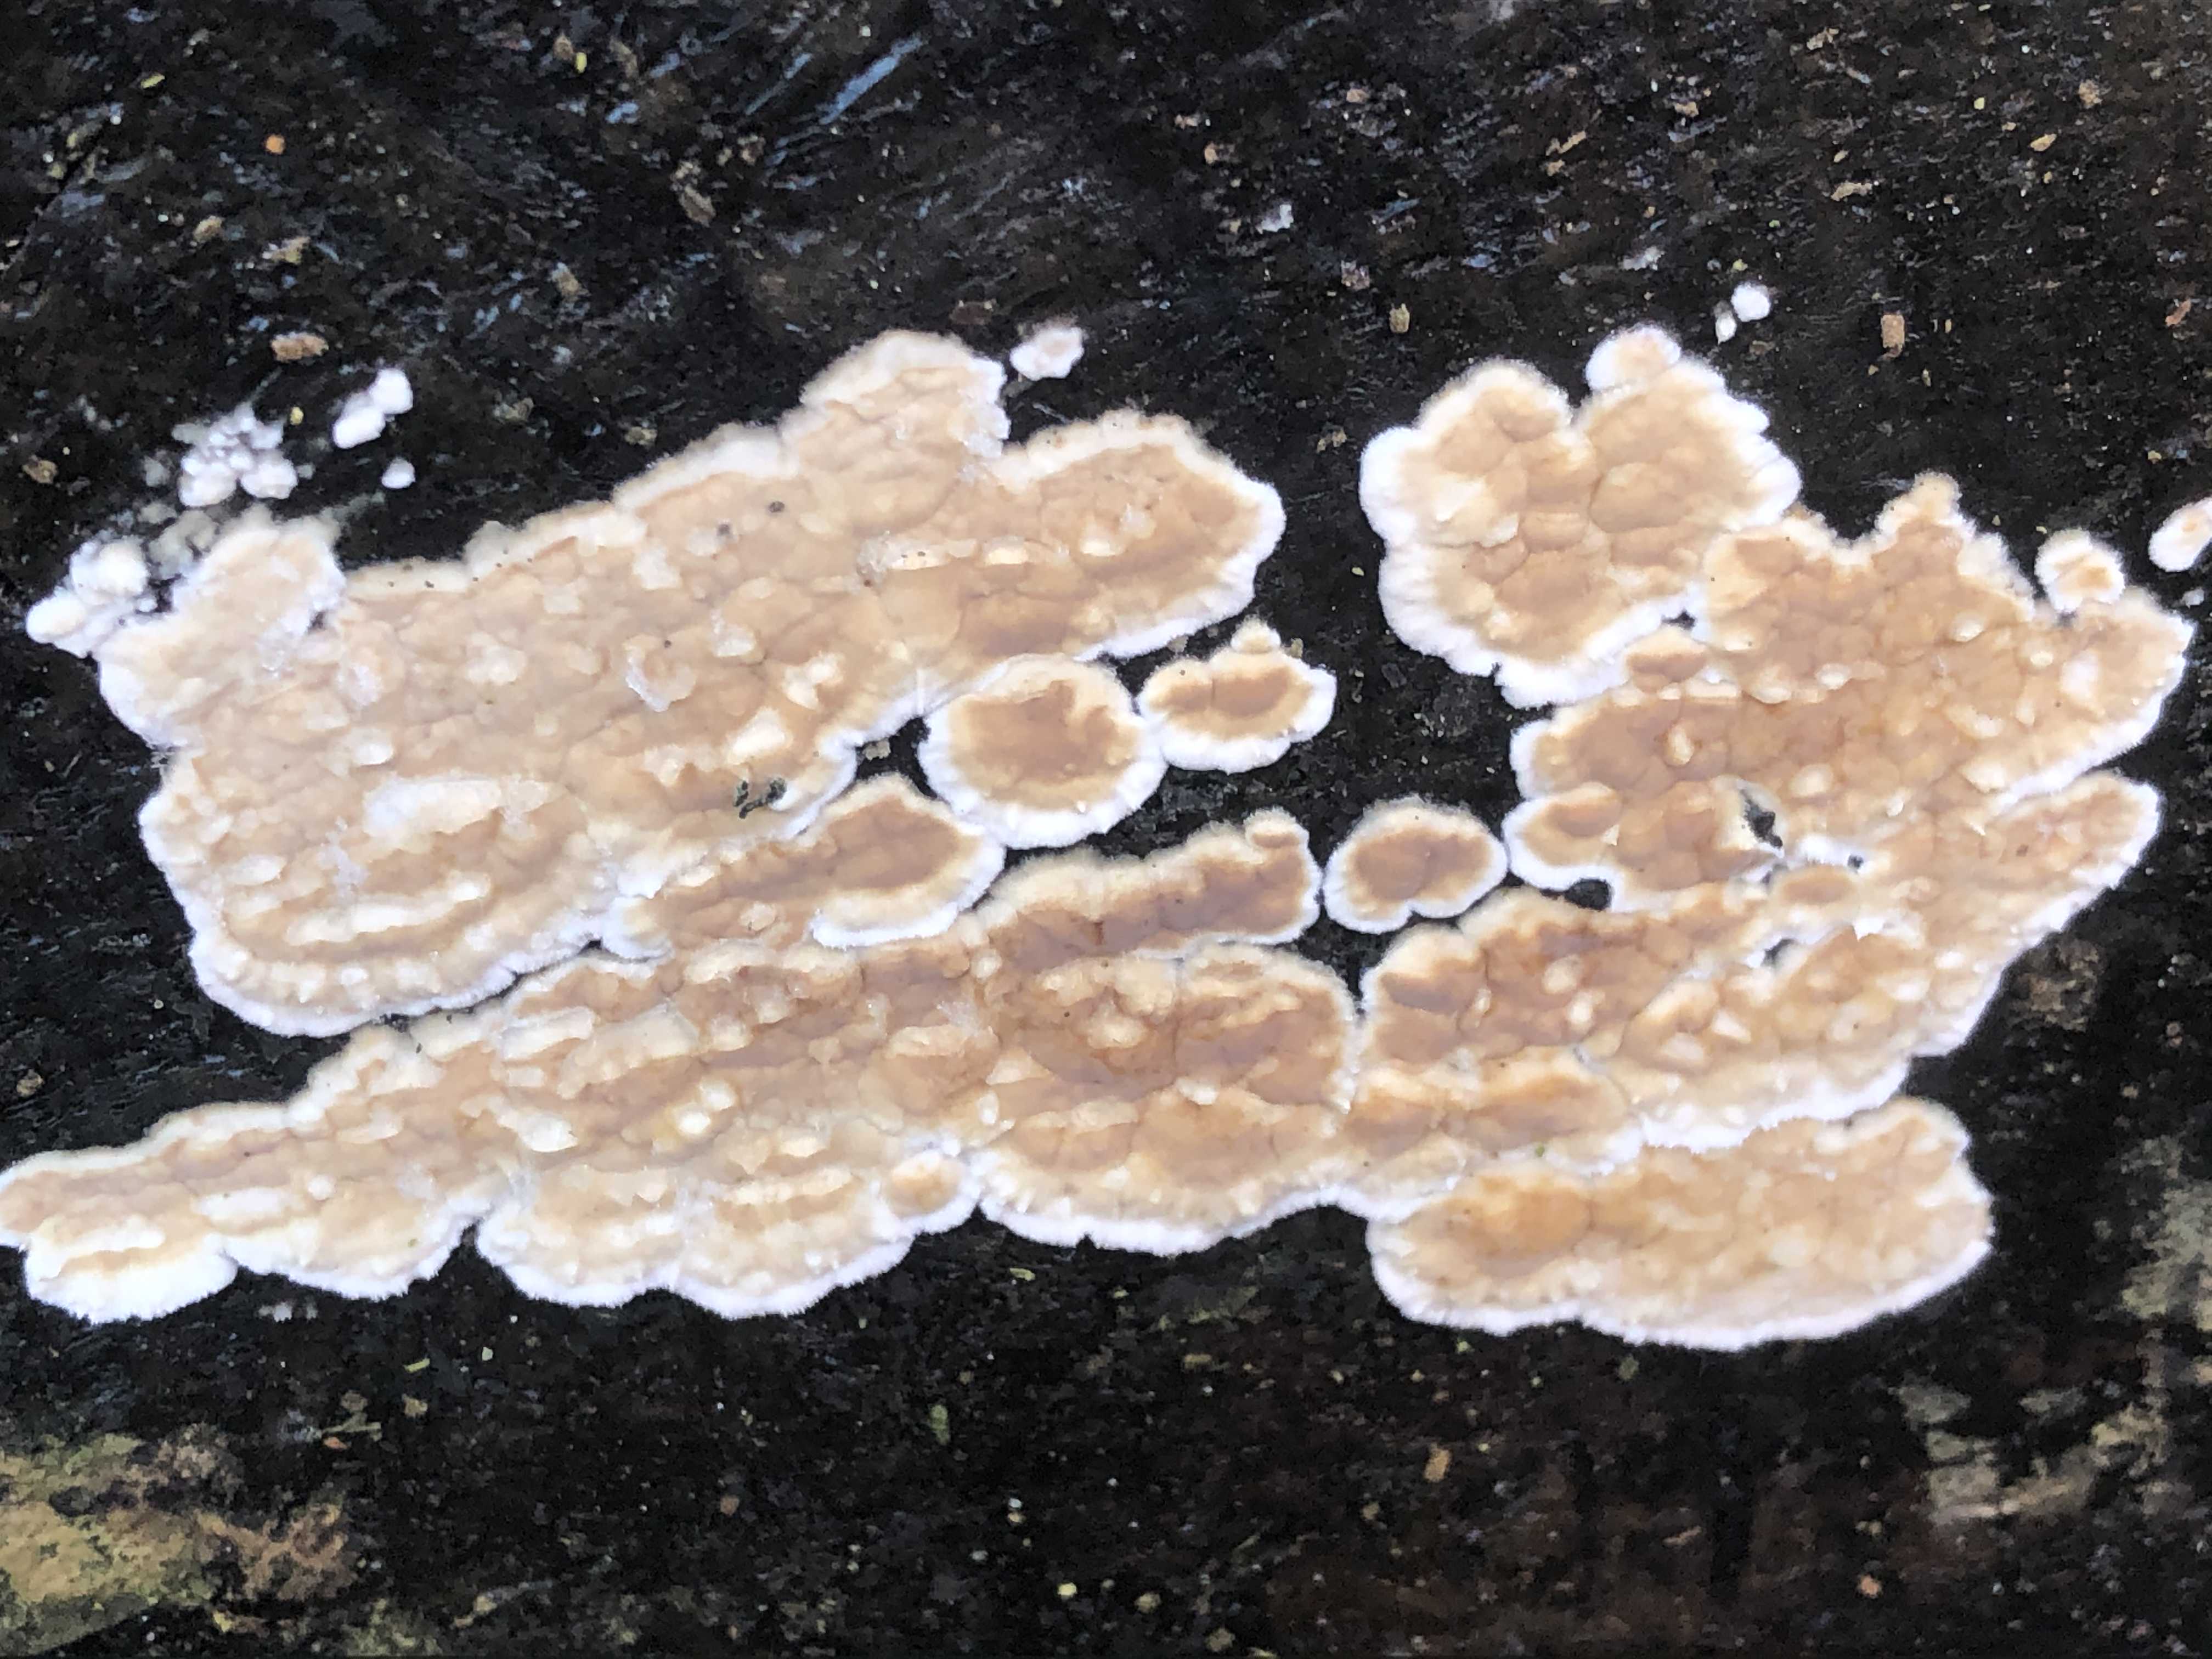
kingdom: Fungi
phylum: Basidiomycota
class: Agaricomycetes
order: Agaricales
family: Physalacriaceae
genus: Cylindrobasidium
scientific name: Cylindrobasidium evolvens
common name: sprækkehinde
